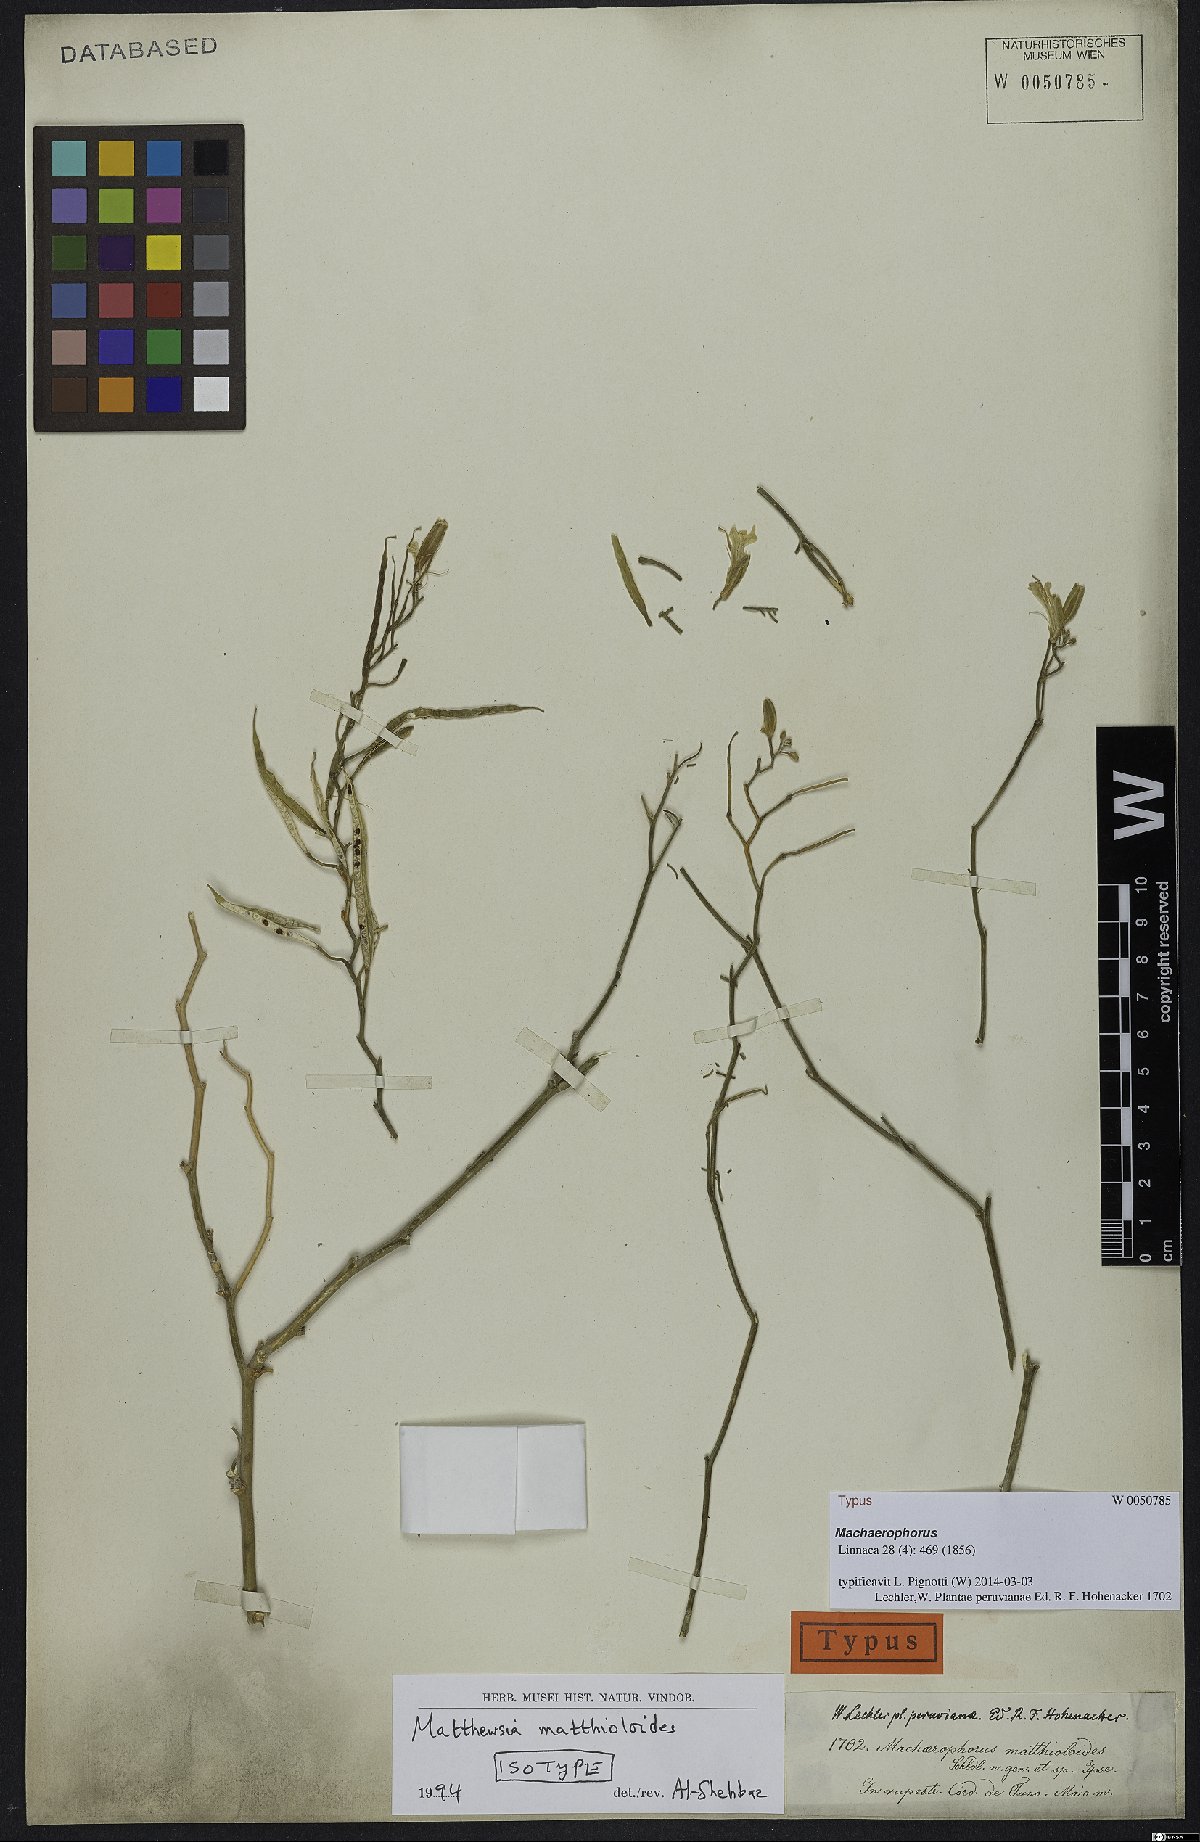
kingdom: Plantae
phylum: Tracheophyta
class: Magnoliopsida
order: Brassicales
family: Brassicaceae
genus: Machaerophorus
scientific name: Machaerophorus matthioloides
